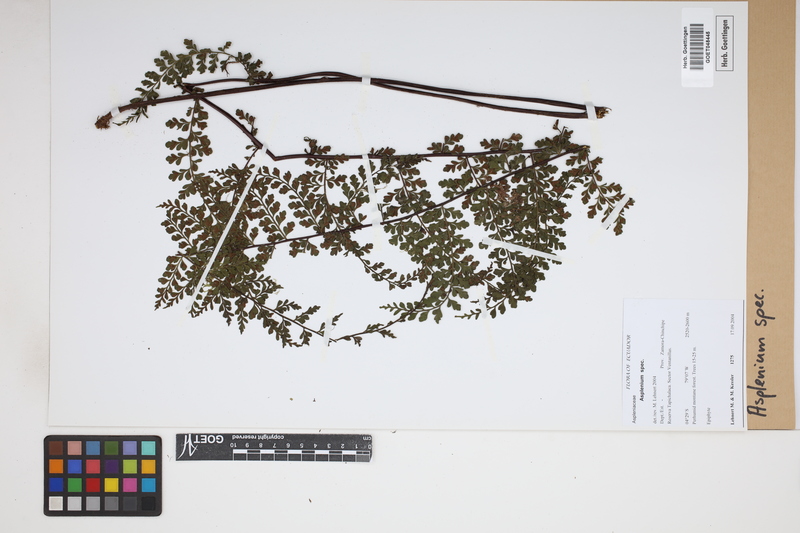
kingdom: Plantae
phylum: Tracheophyta
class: Polypodiopsida
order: Polypodiales
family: Aspleniaceae
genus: Asplenium
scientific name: Asplenium
